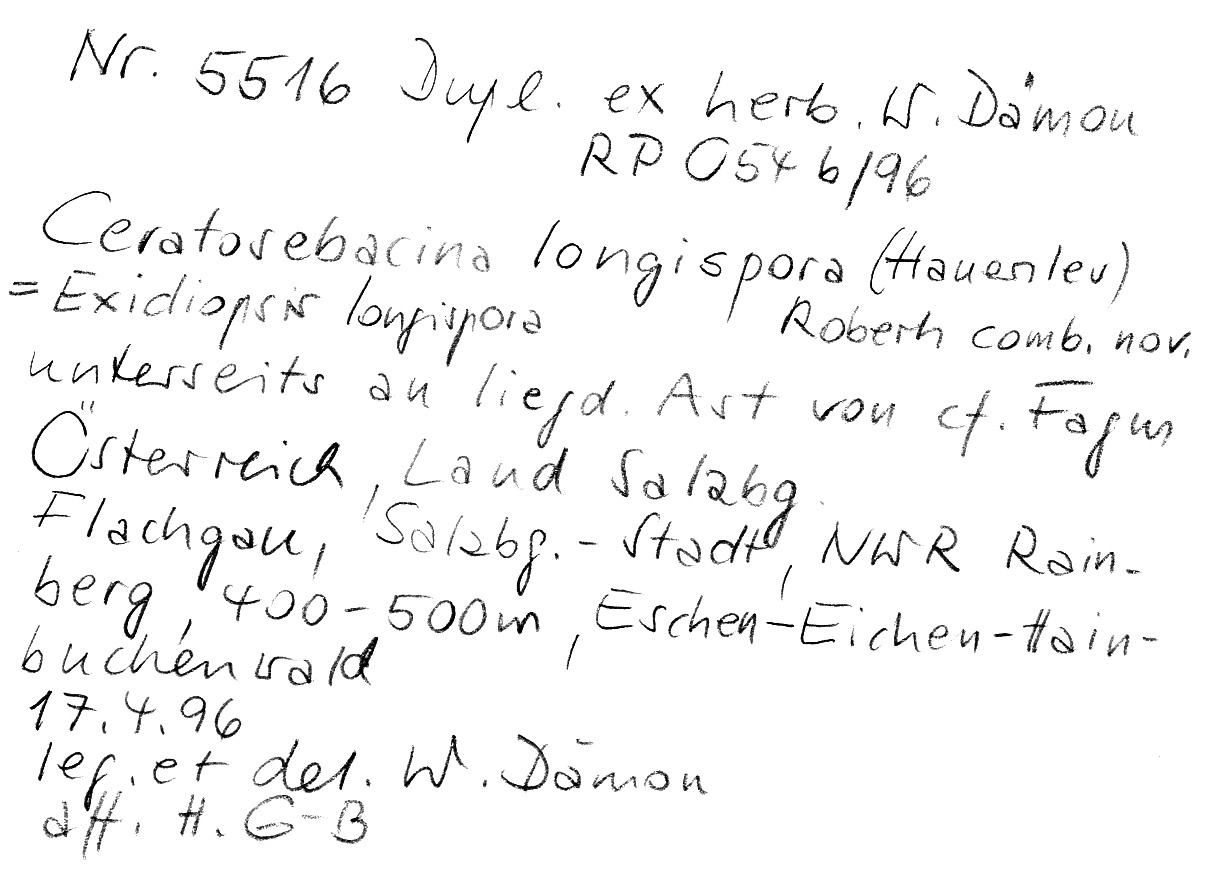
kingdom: Plantae
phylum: Tracheophyta
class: Magnoliopsida
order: Fagales
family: Fagaceae
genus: Fagus
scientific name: Fagus
